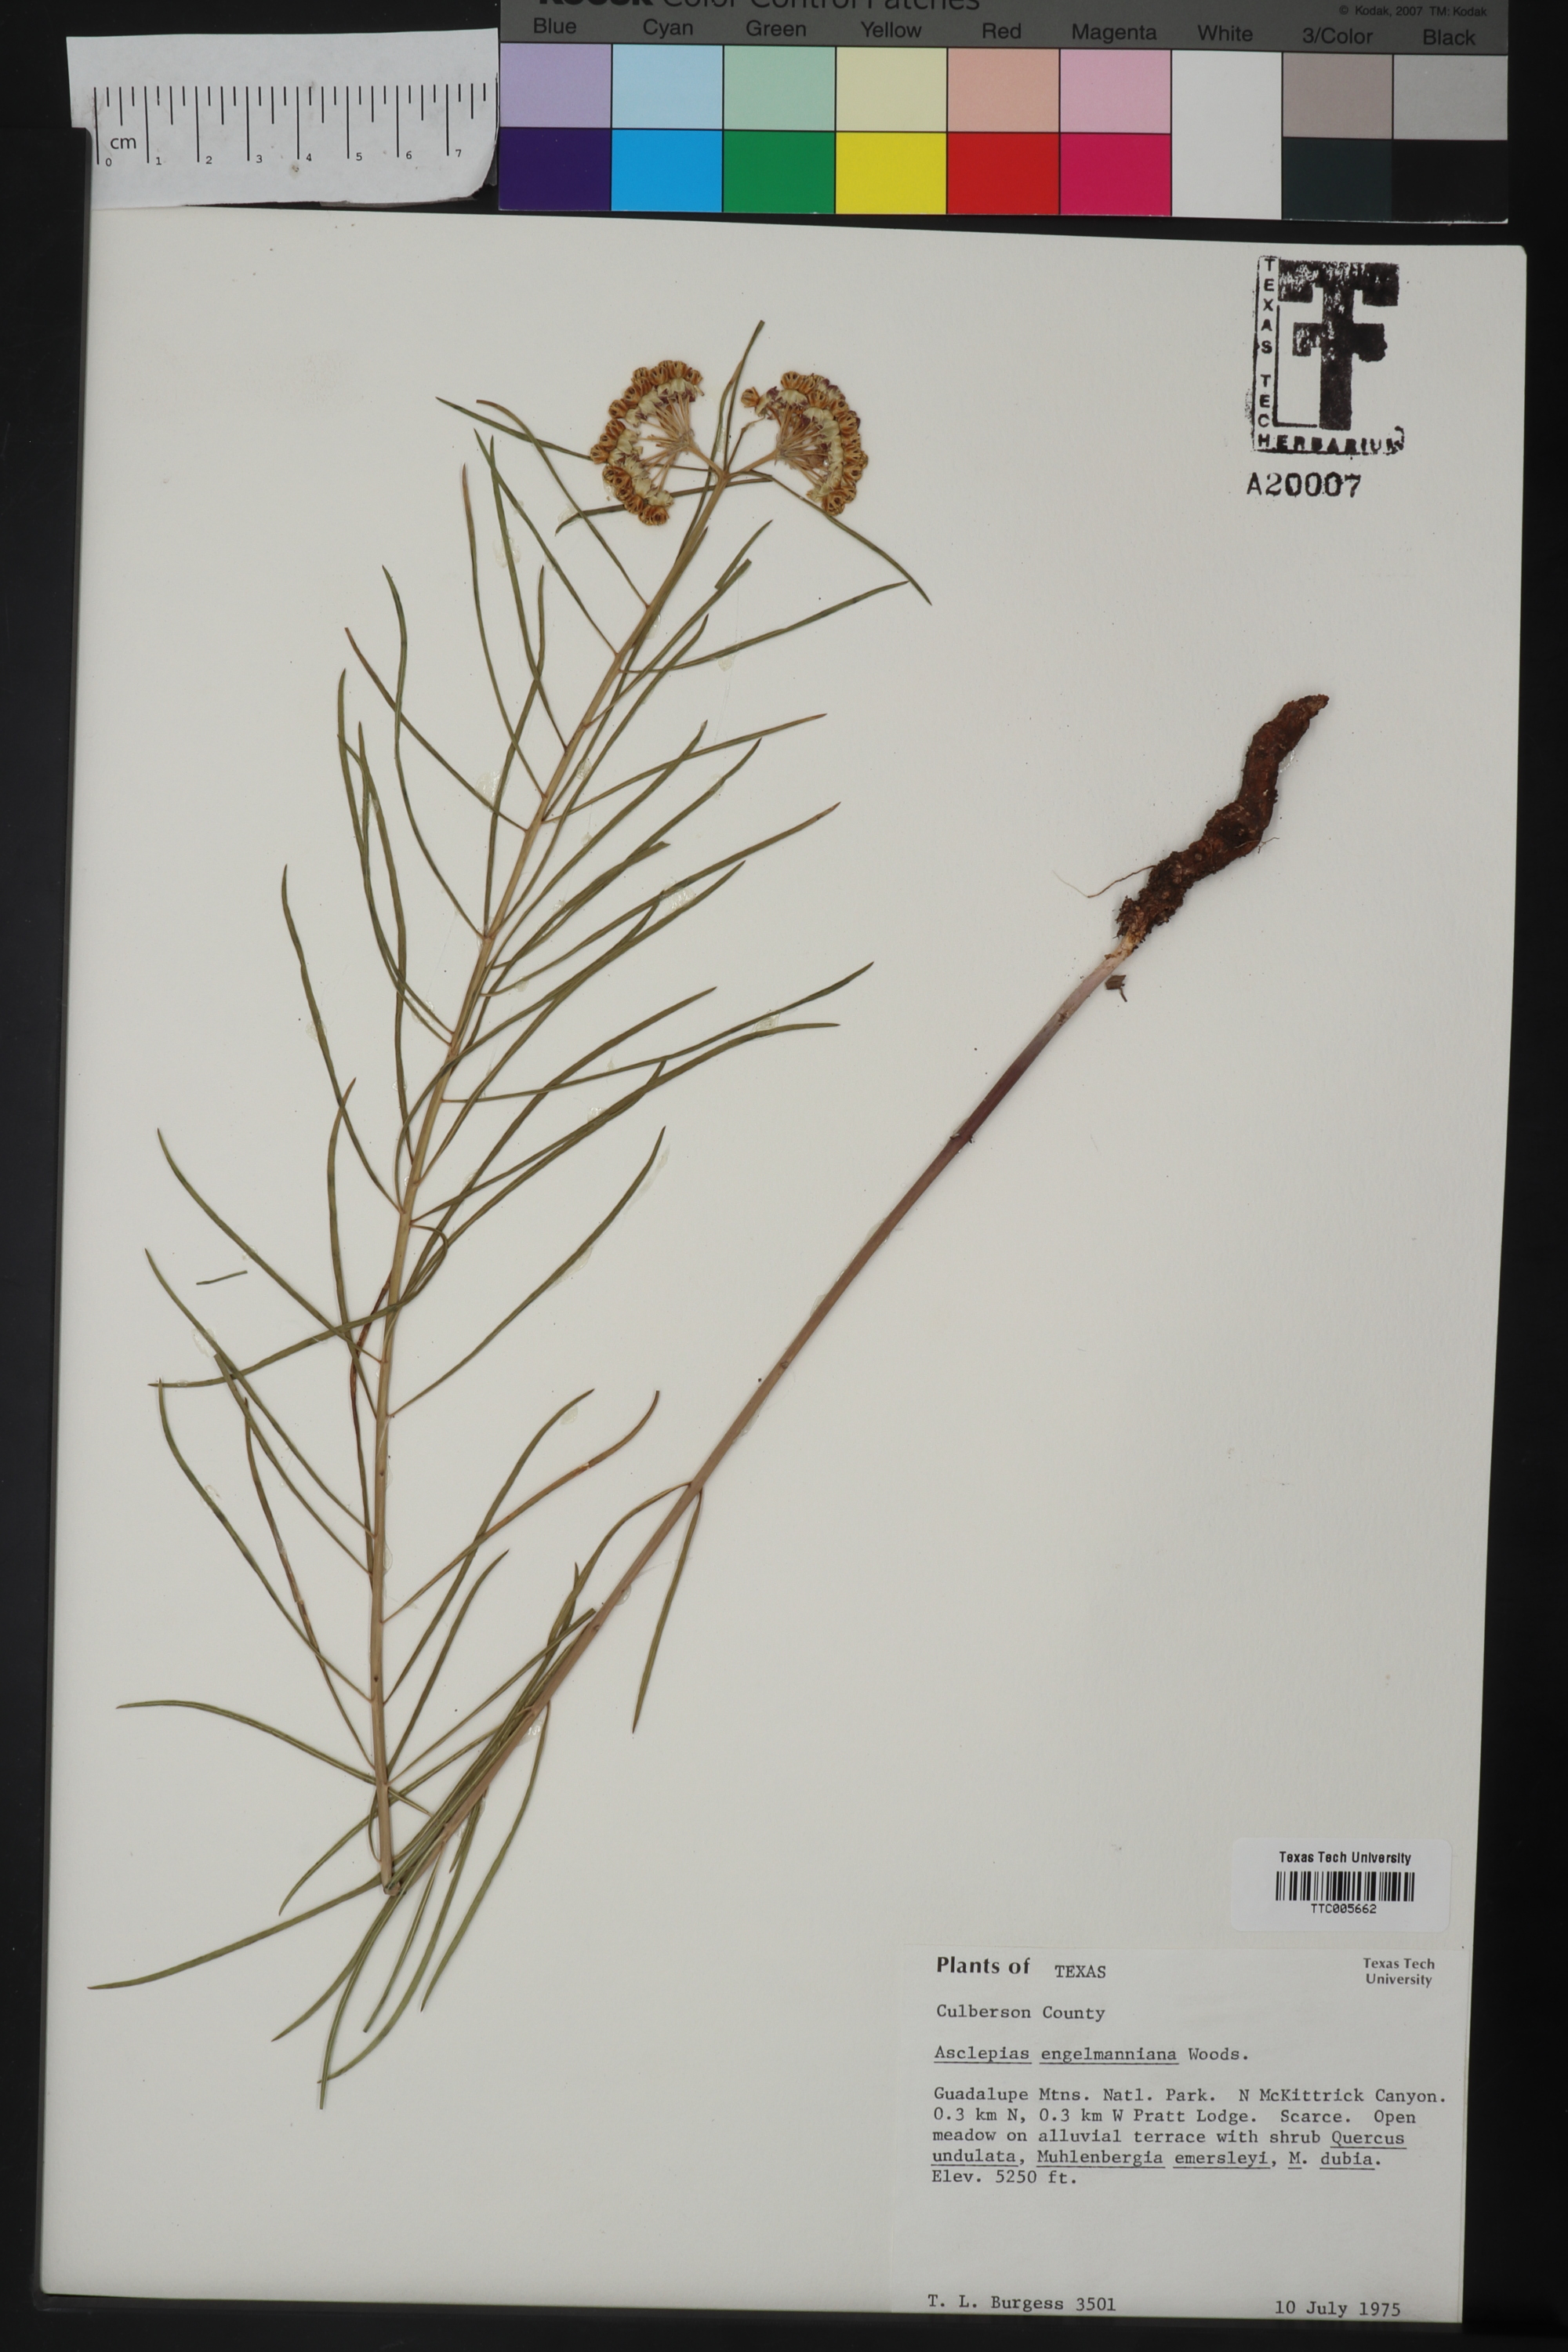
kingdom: Plantae
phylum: Tracheophyta
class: Magnoliopsida
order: Gentianales
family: Apocynaceae
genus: Asclepias
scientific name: Asclepias engelmanniana
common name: Engelmann's milkweed
